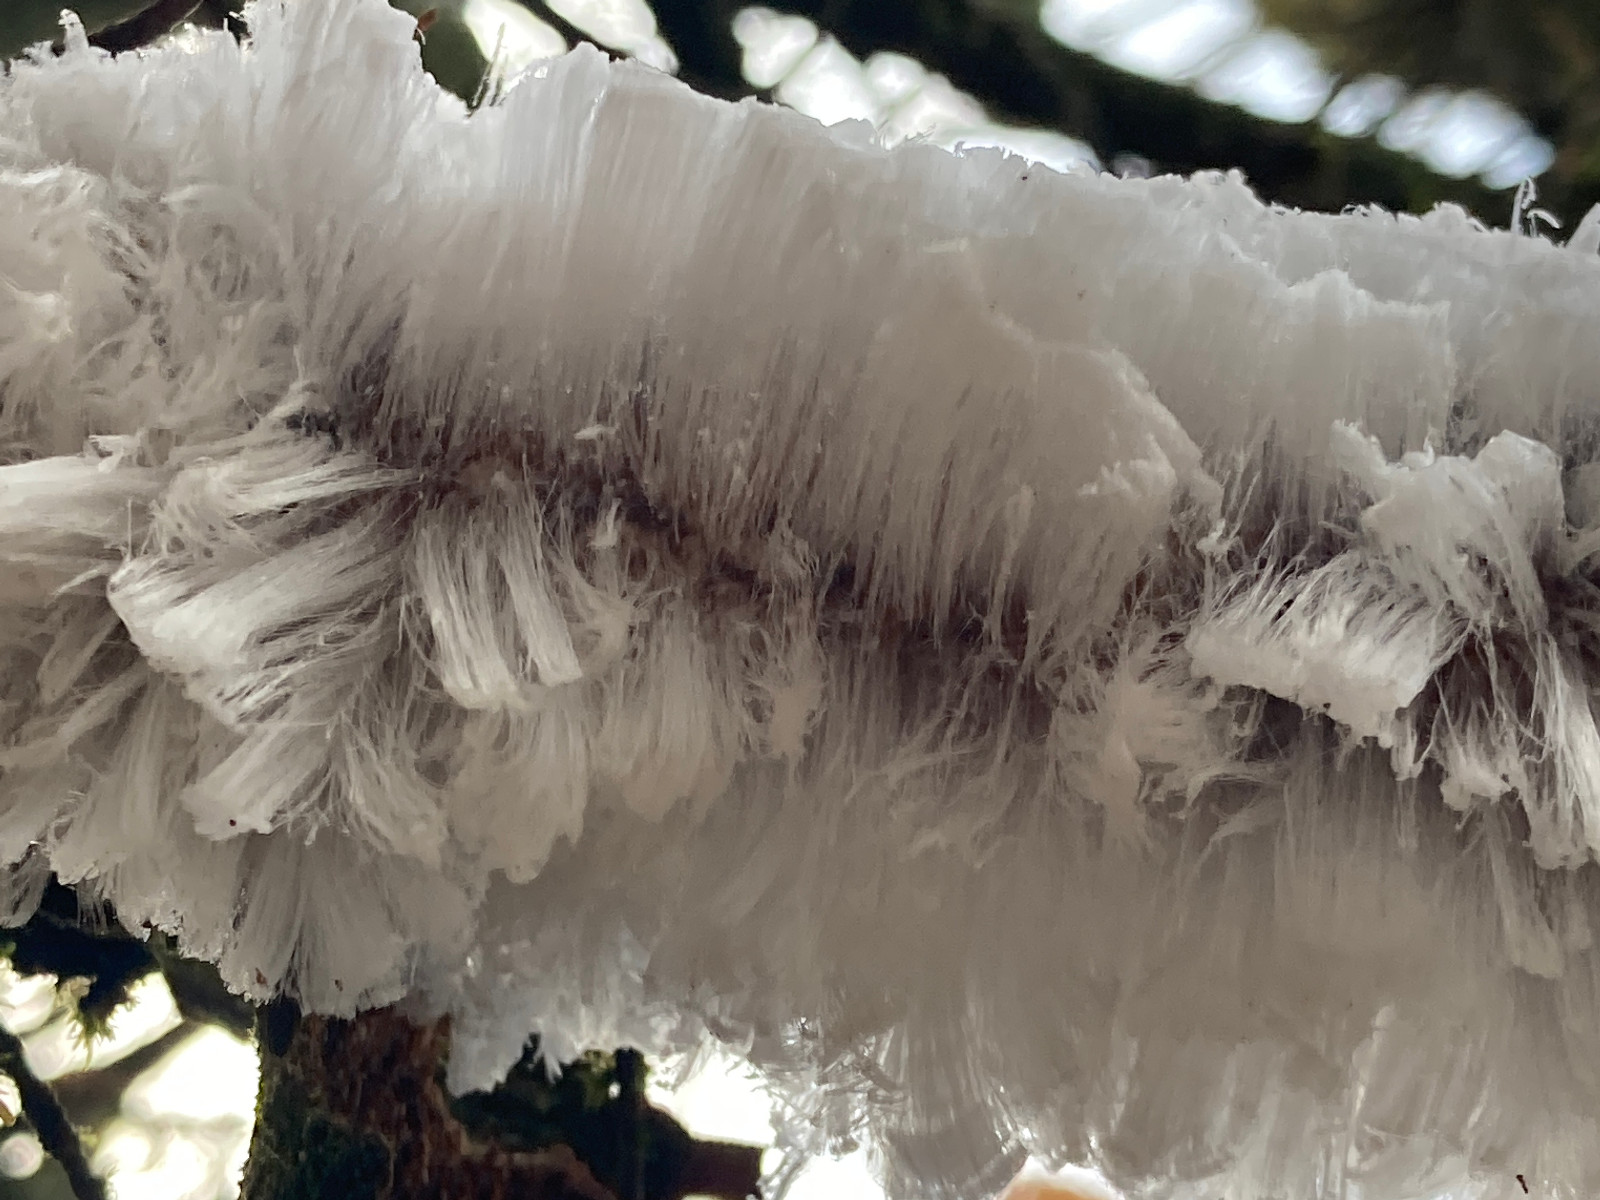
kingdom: Fungi
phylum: Basidiomycota
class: Tremellomycetes
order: Tremellales
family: Exidiaceae
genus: Exidiopsis
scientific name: Exidiopsis effusa
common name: smuk bævrehinde
